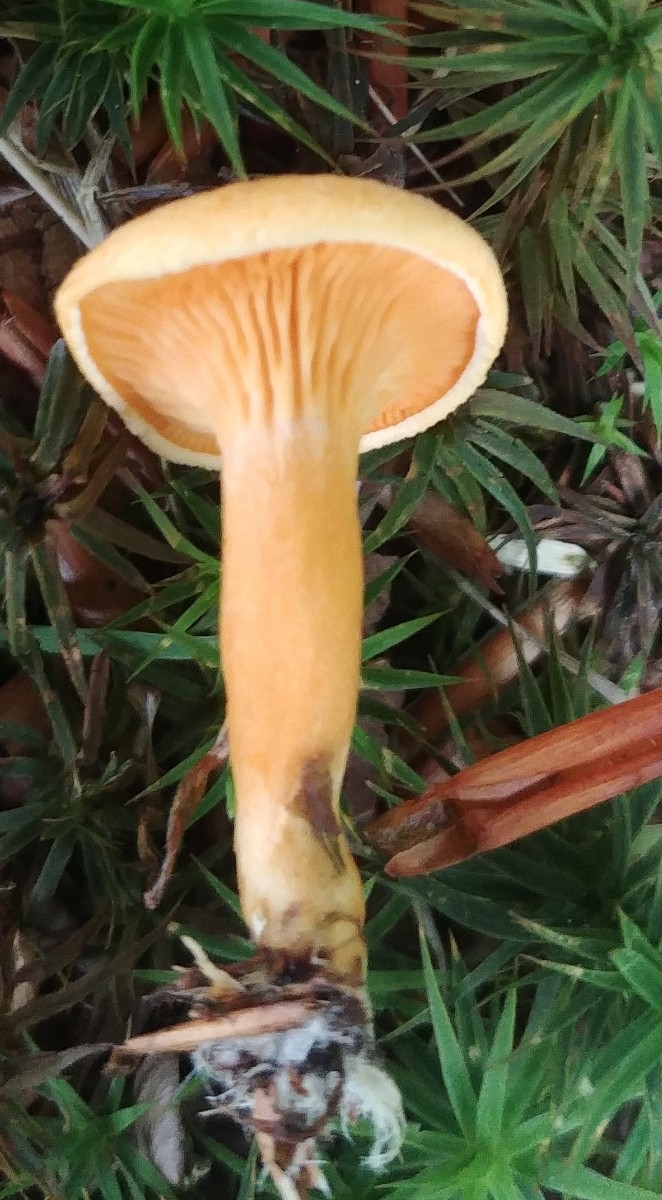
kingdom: Fungi
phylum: Basidiomycota
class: Agaricomycetes
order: Boletales
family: Hygrophoropsidaceae
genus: Hygrophoropsis
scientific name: Hygrophoropsis aurantiaca
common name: almindelig orangekantarel
